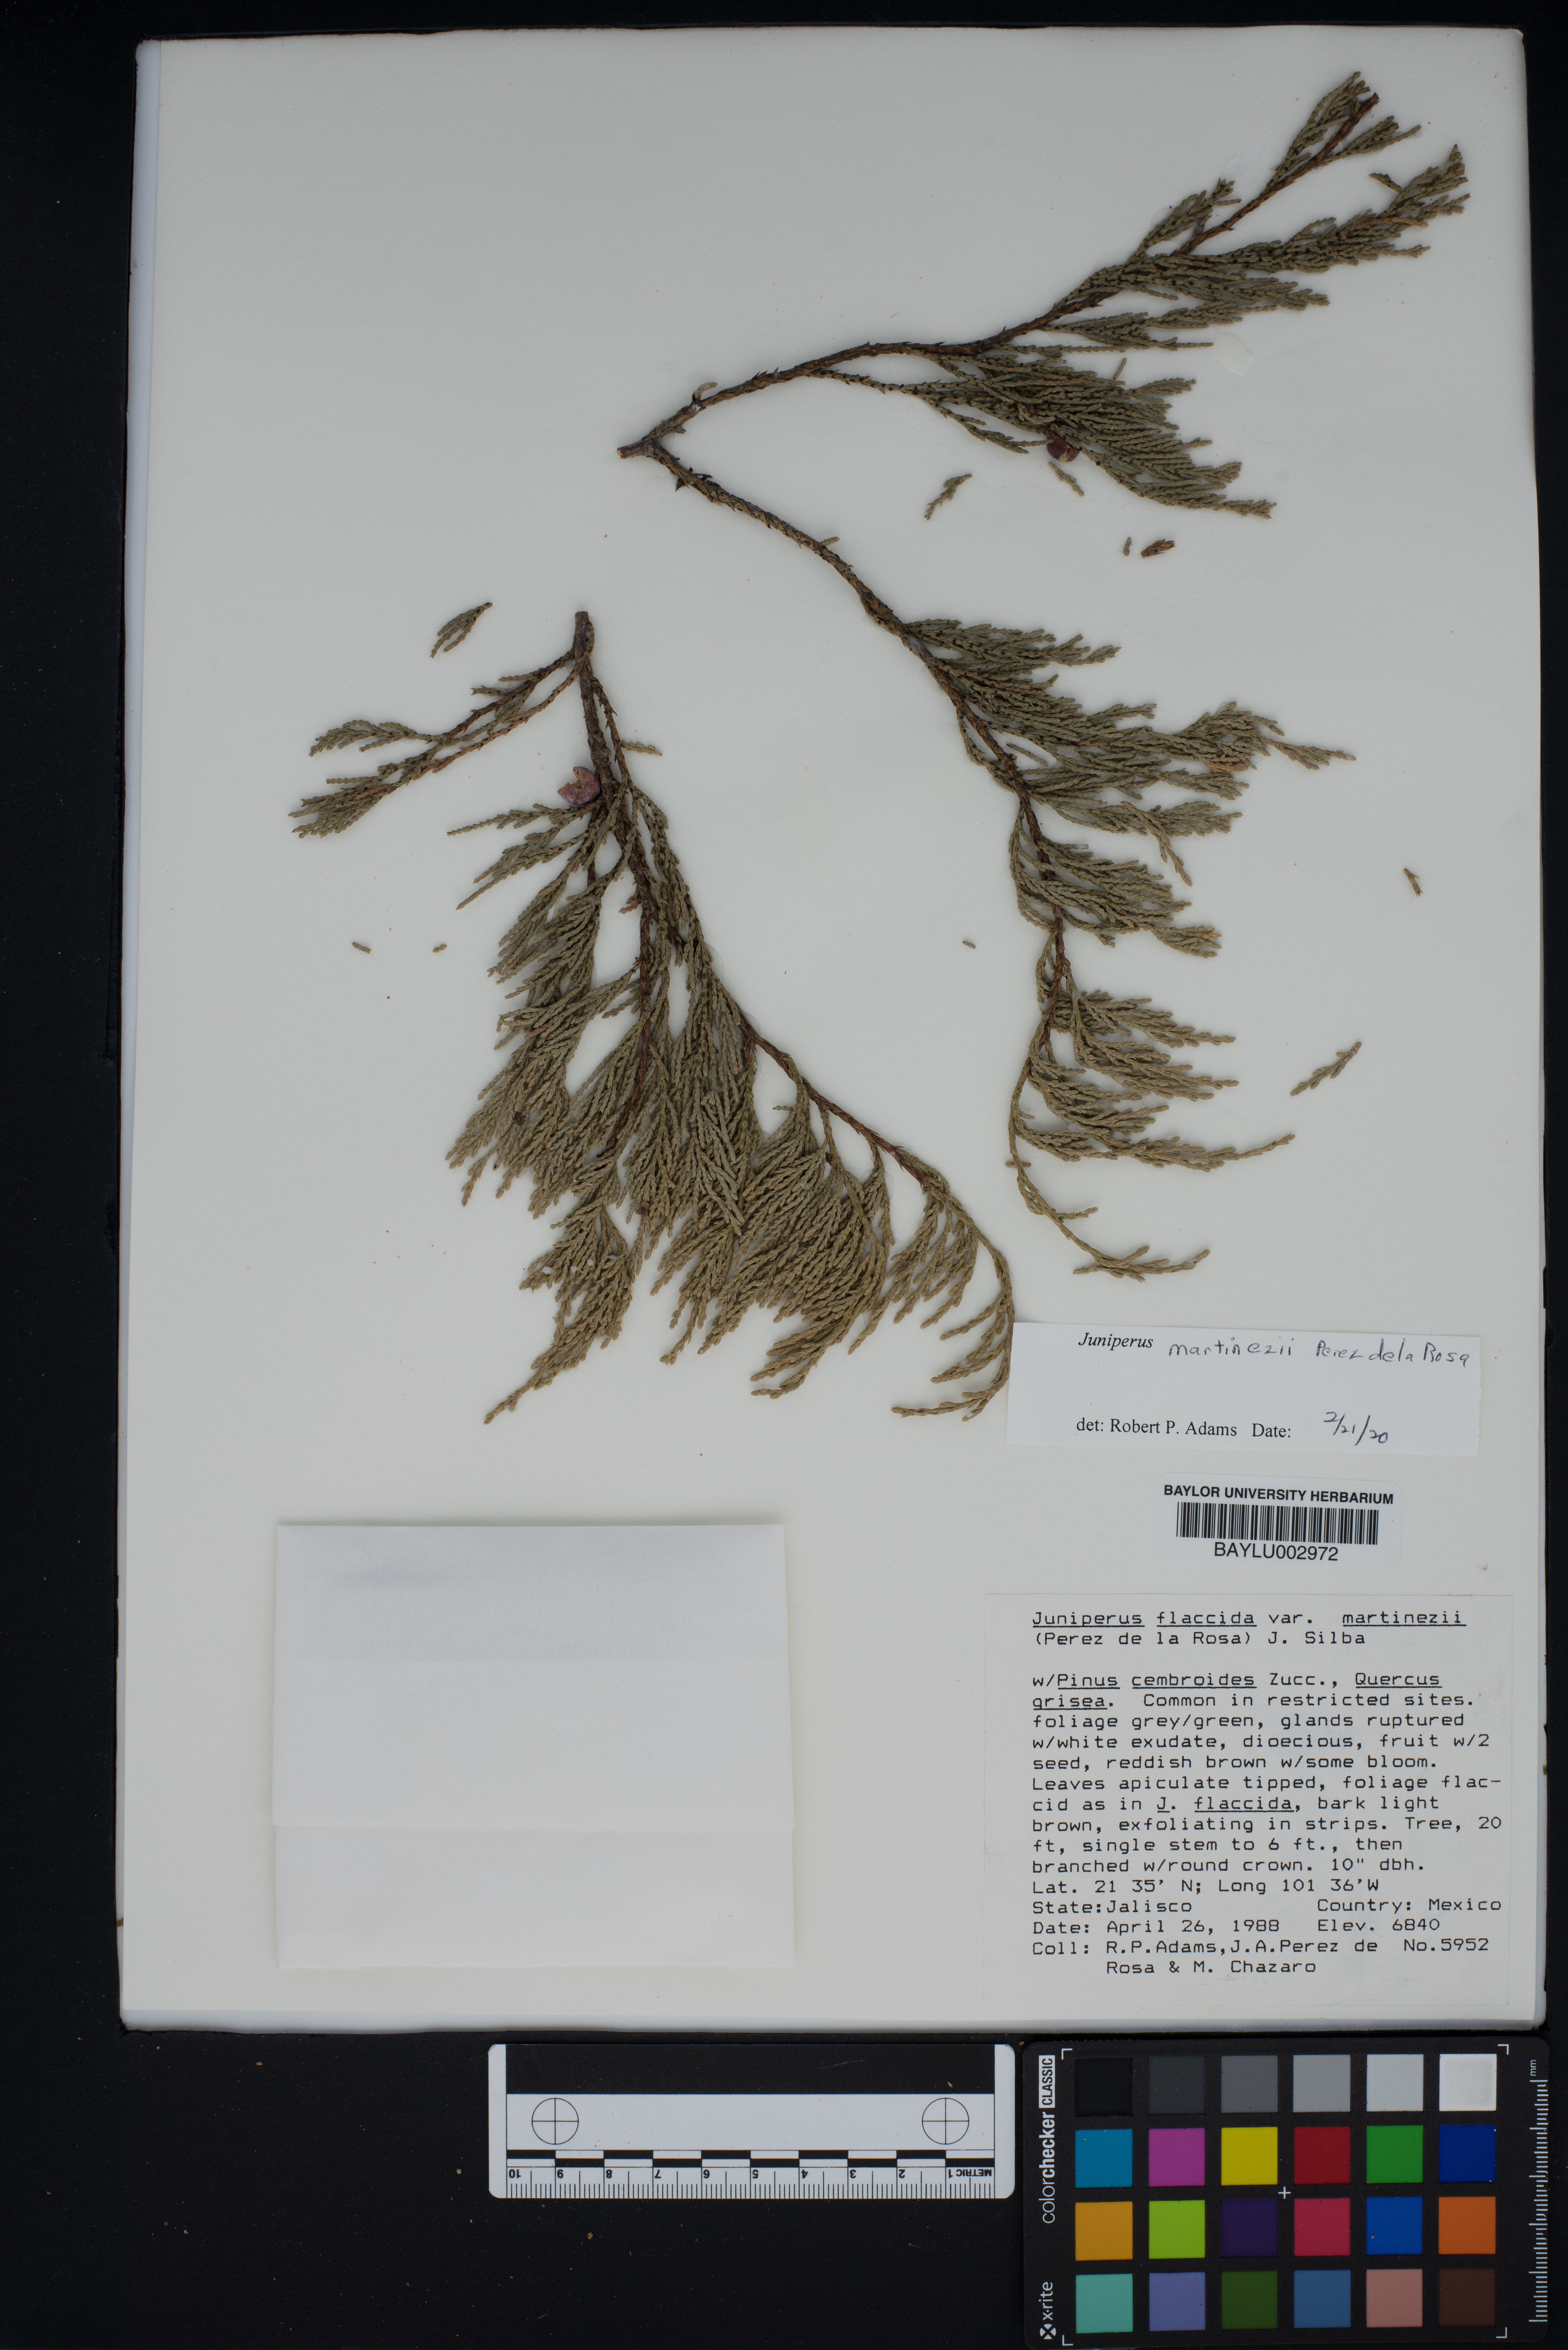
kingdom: Plantae
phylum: Tracheophyta
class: Pinopsida
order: Pinales
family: Cupressaceae
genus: Juniperus
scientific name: Juniperus flaccida
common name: Drooping juniper
